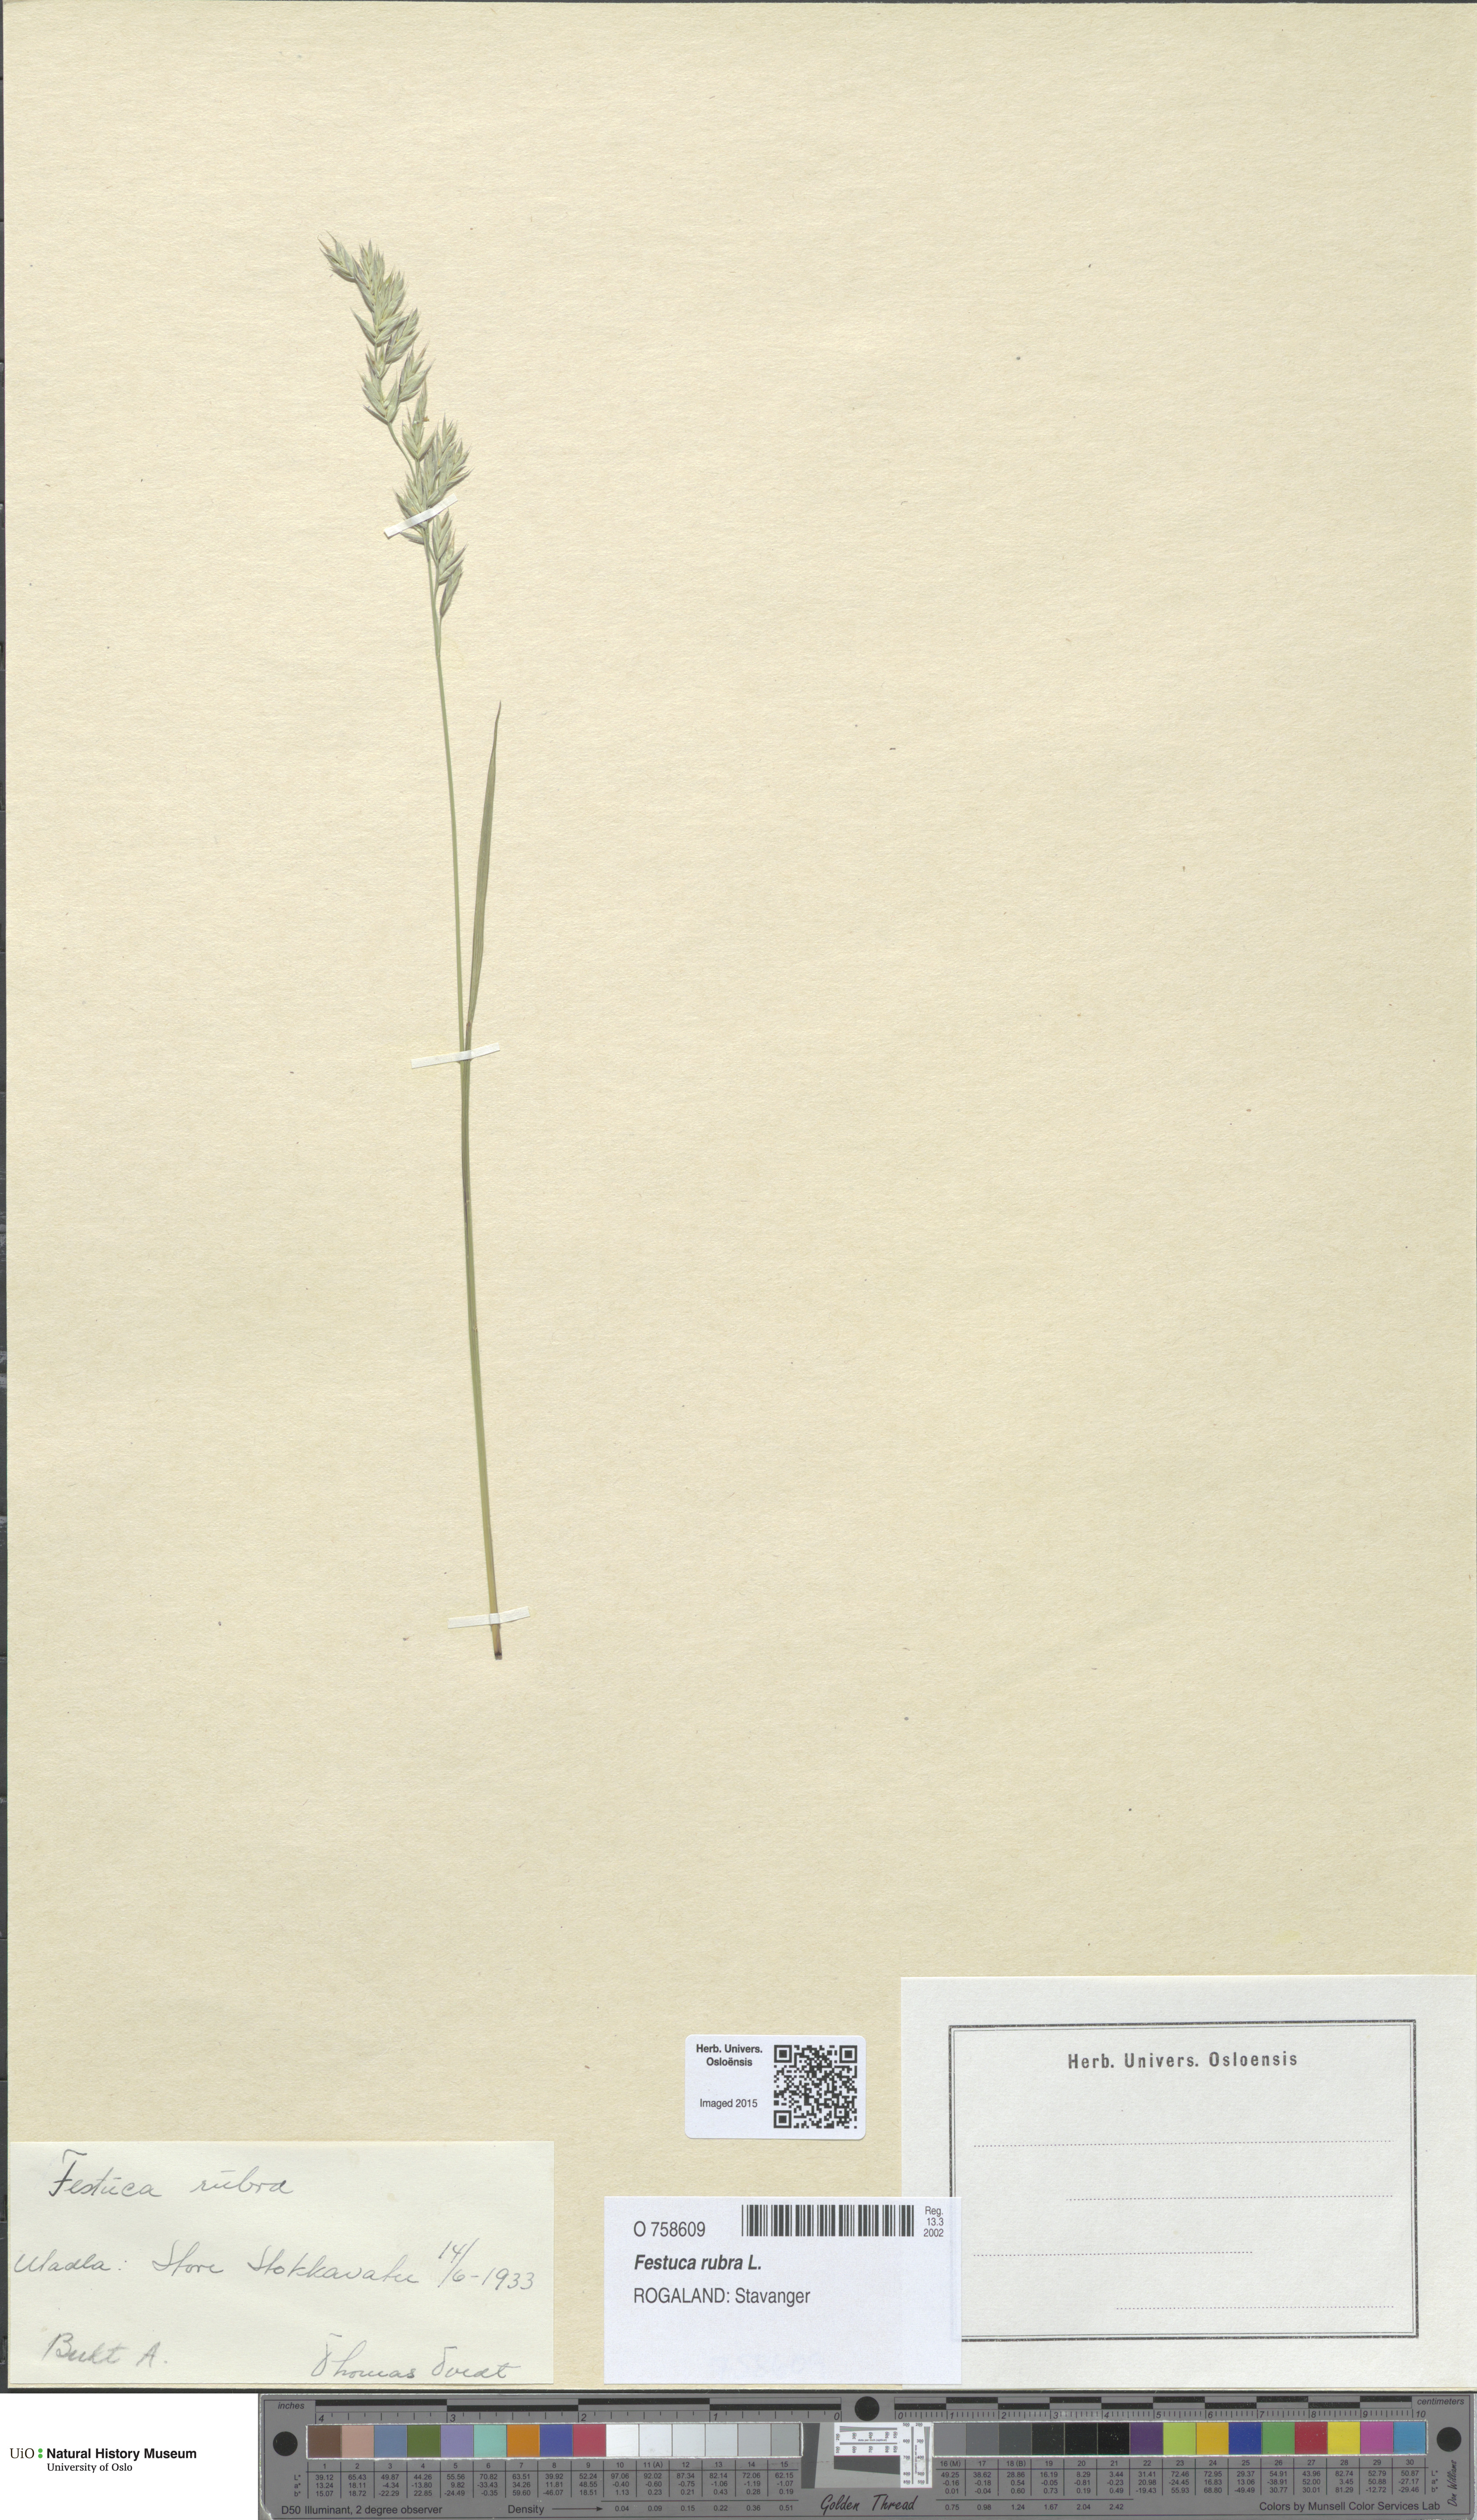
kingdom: Plantae
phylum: Tracheophyta
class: Liliopsida
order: Poales
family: Poaceae
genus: Festuca
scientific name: Festuca rubra
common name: Red fescue
